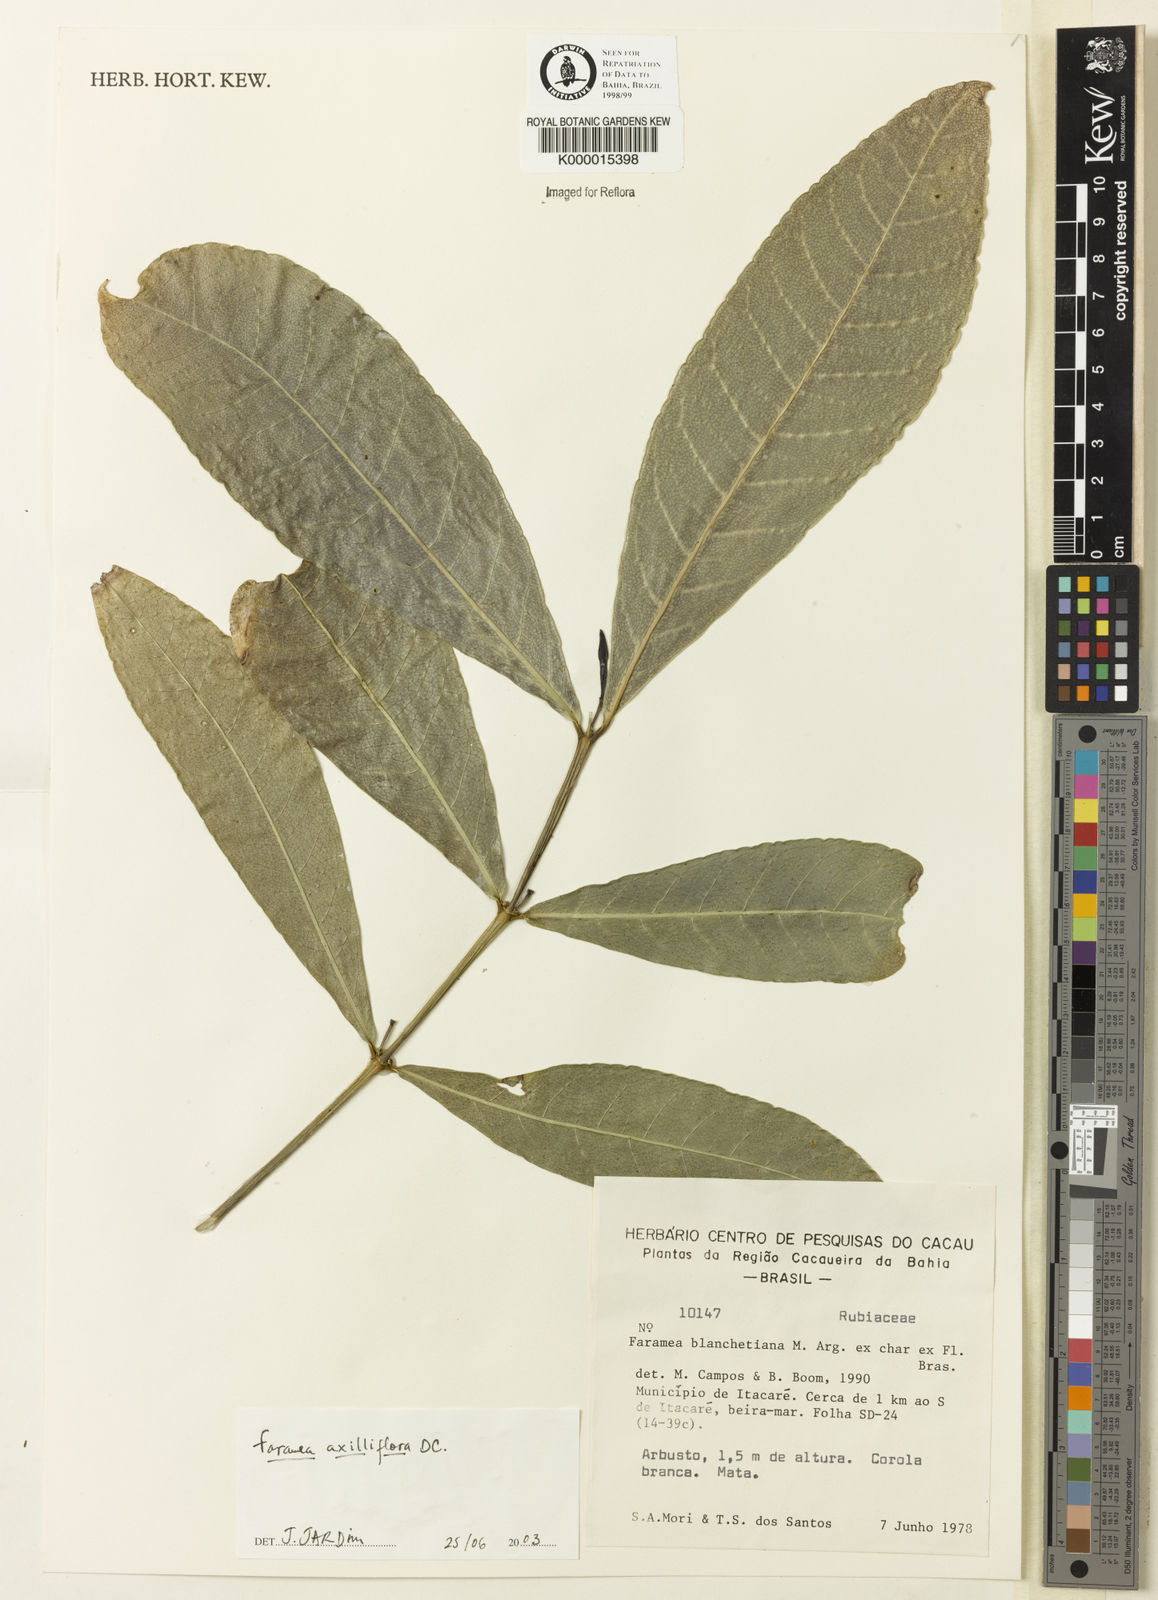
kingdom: Plantae
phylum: Tracheophyta
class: Magnoliopsida
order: Gentianales
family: Rubiaceae
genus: Faramea
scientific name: Faramea axilliflora
